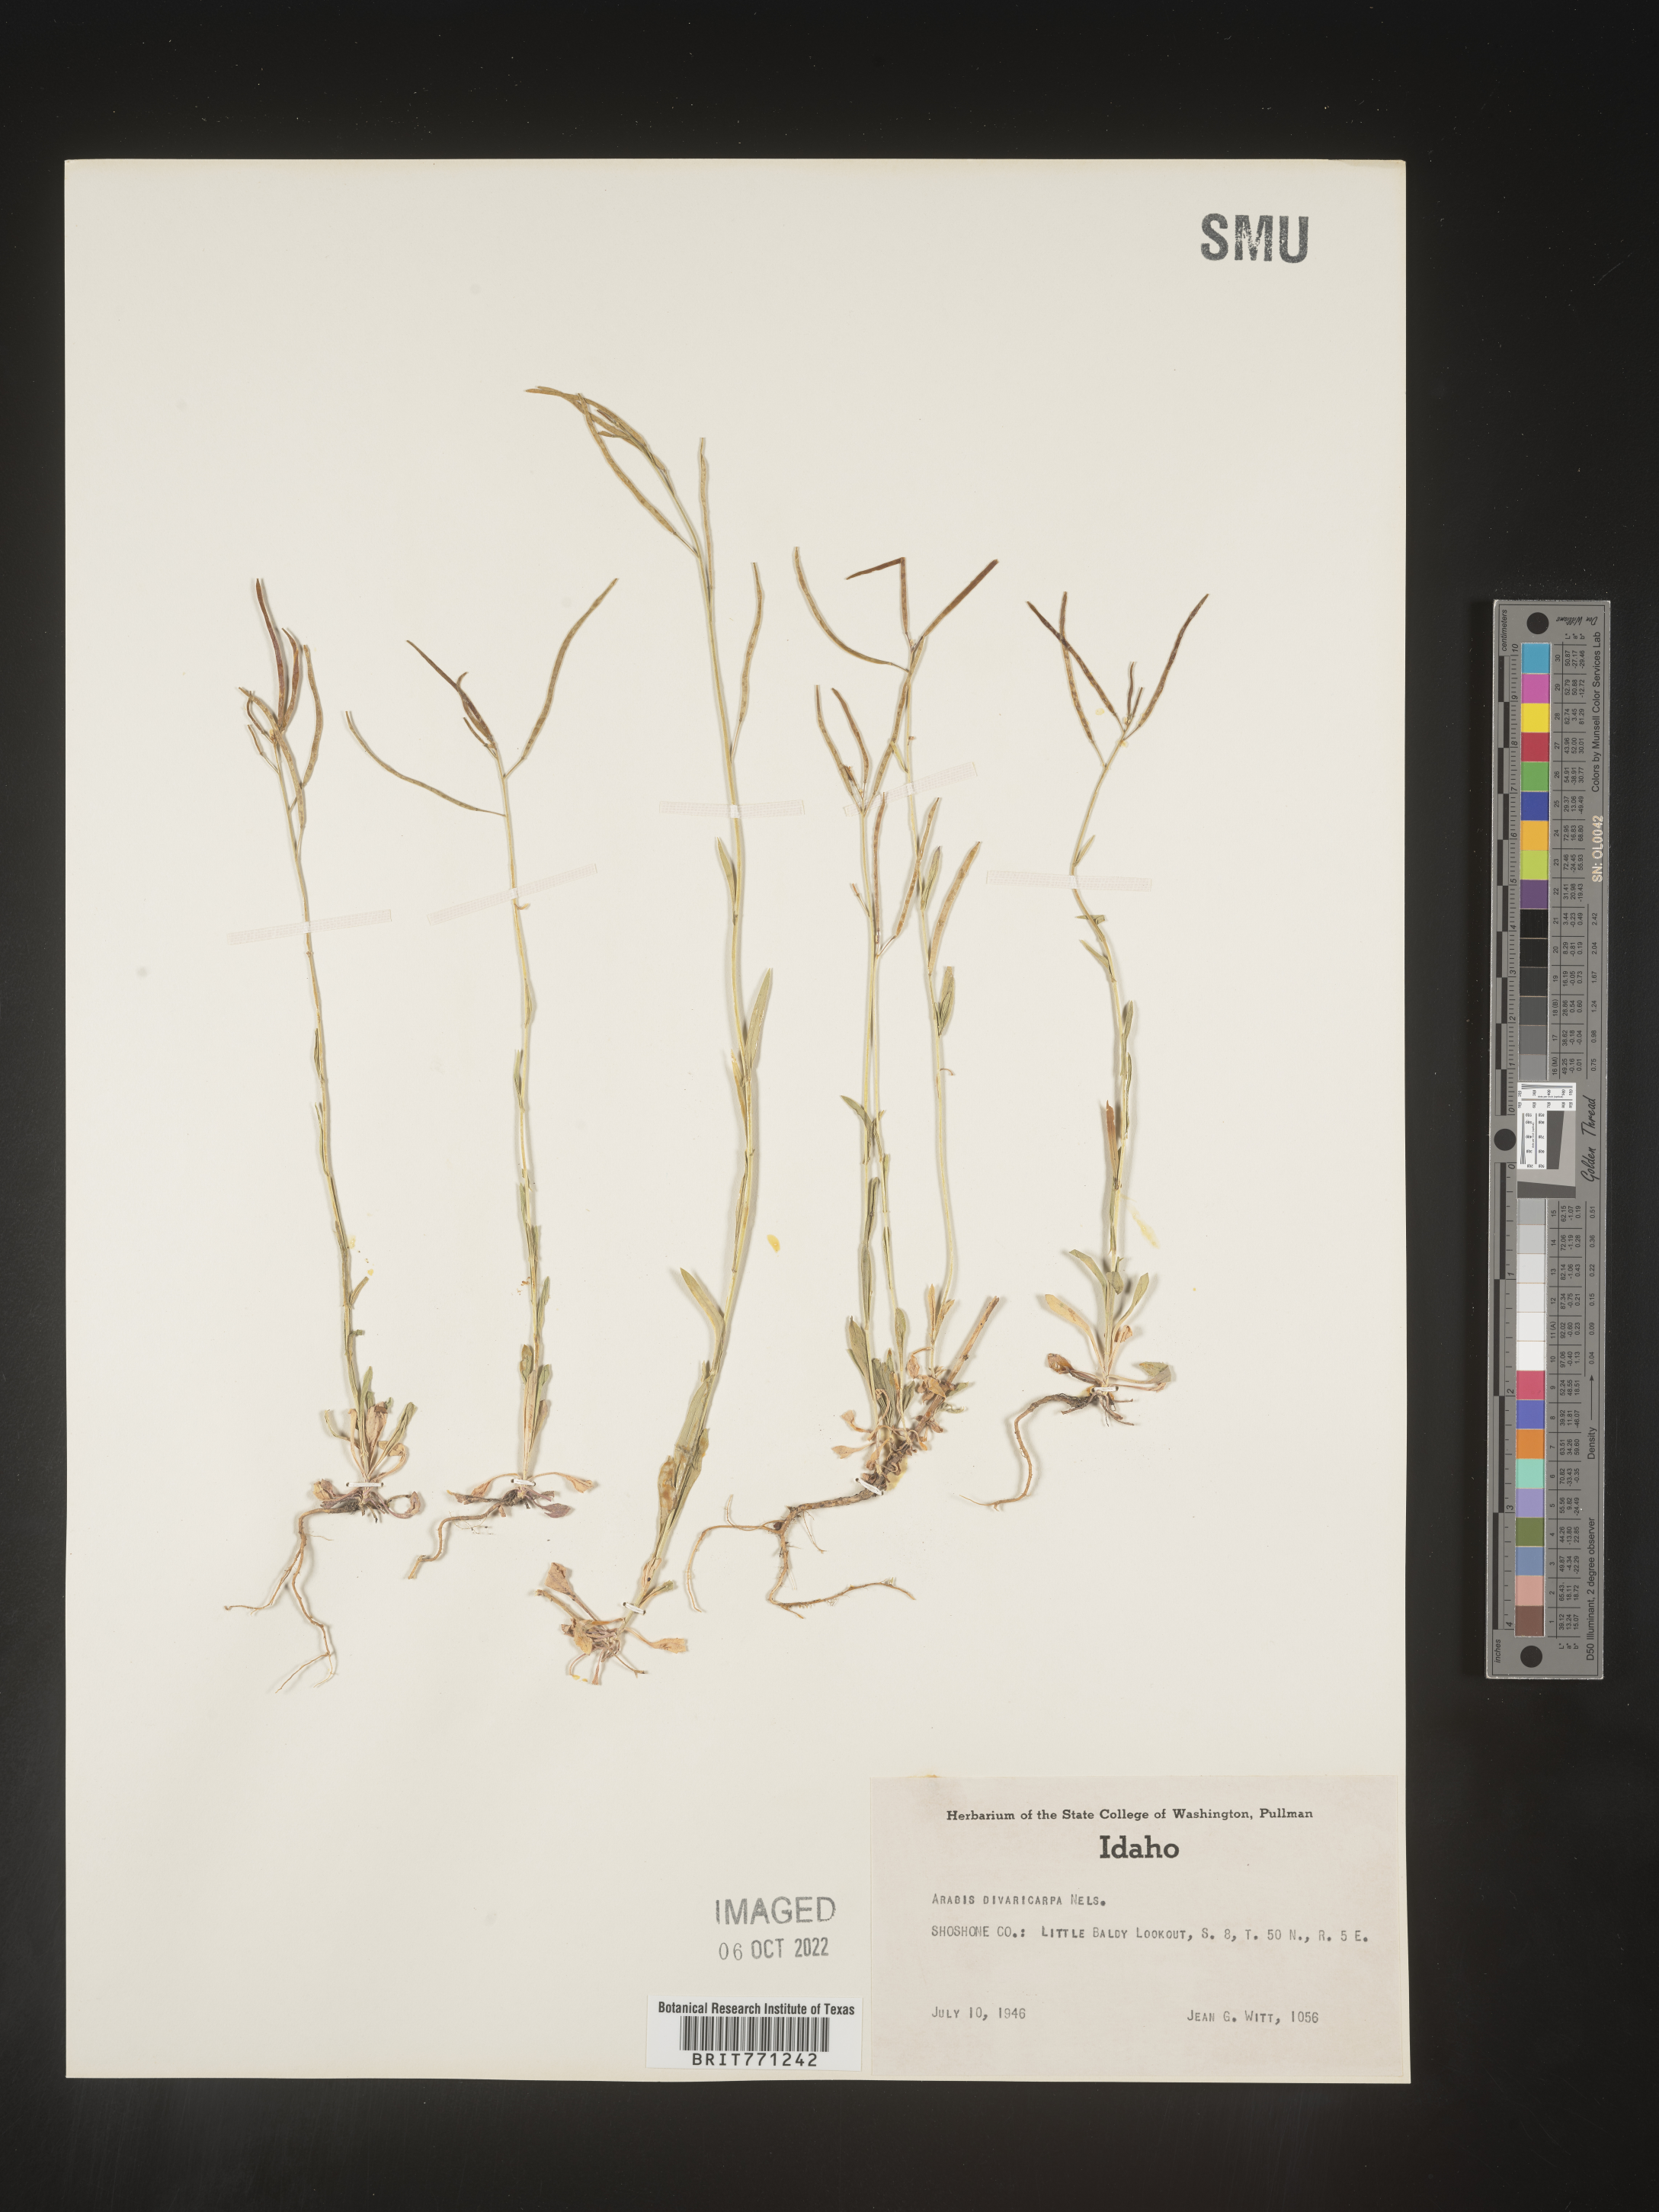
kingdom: Plantae
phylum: Tracheophyta
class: Magnoliopsida
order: Brassicales
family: Brassicaceae
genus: Boechera
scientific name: Boechera divaricarpa
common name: Divaricate rockcress
